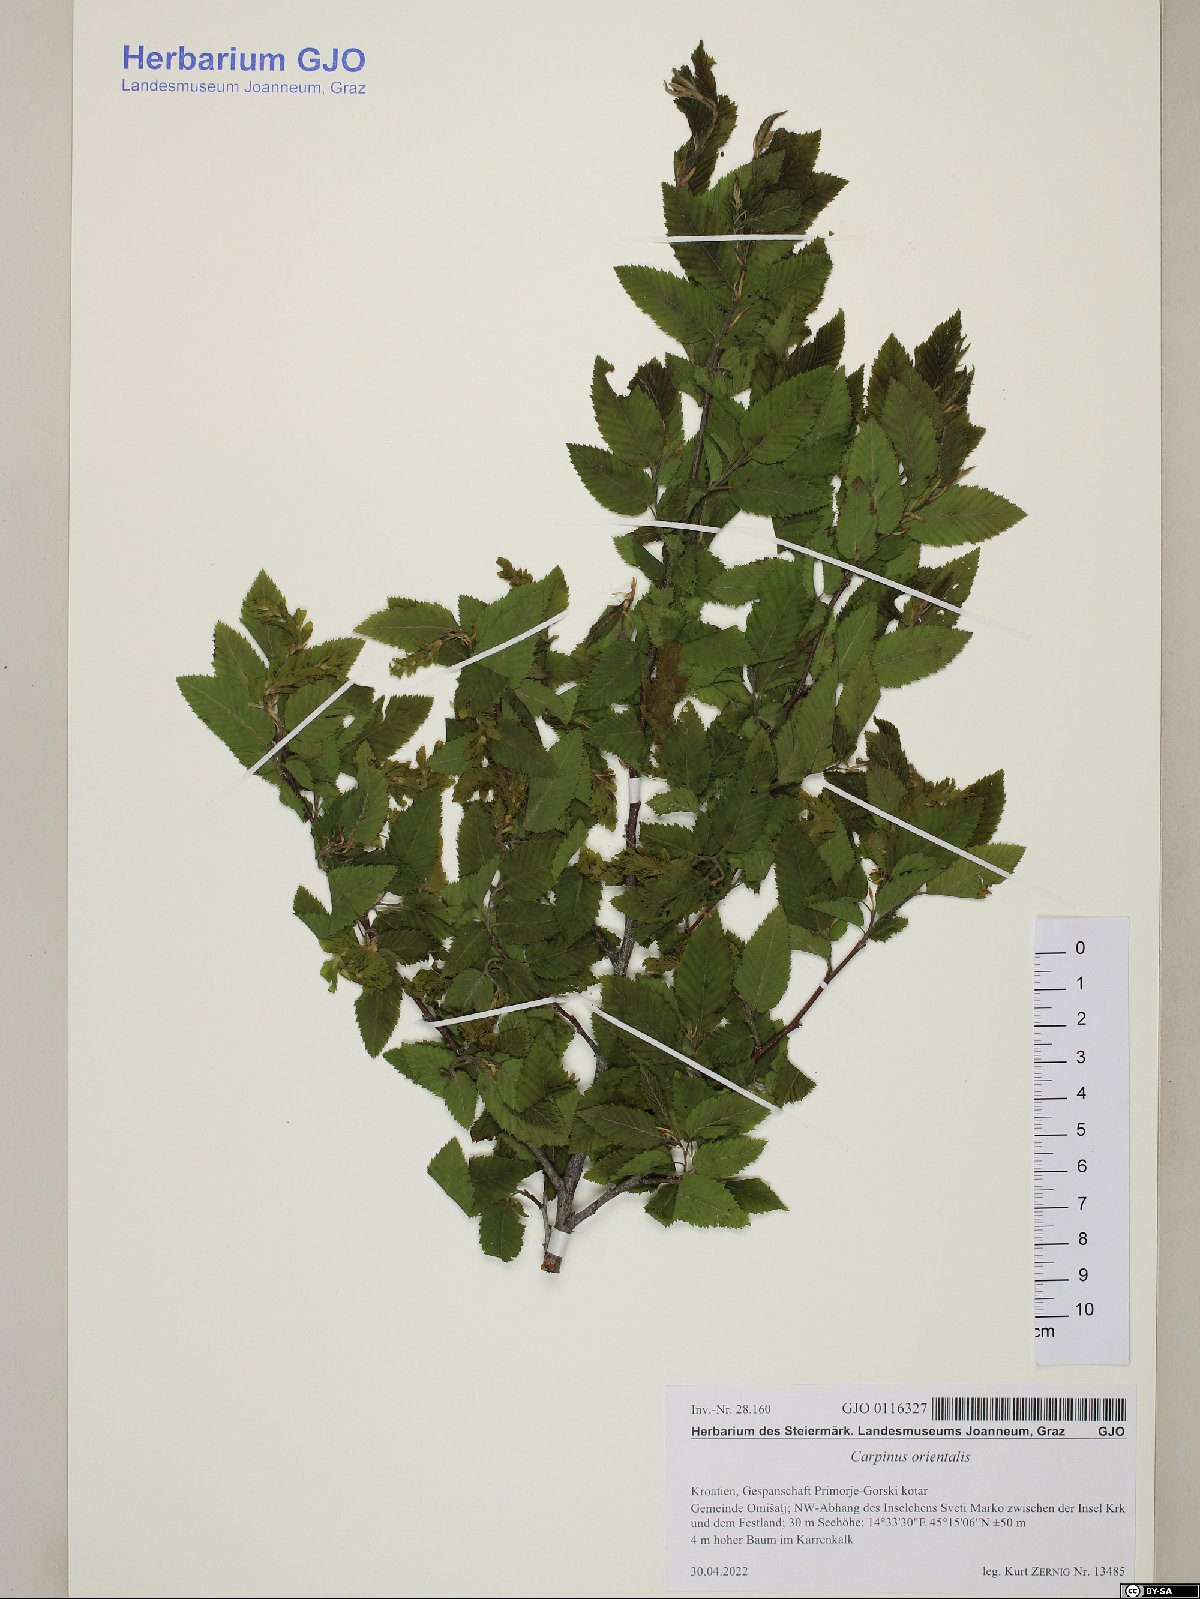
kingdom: Plantae
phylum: Tracheophyta
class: Magnoliopsida
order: Fagales
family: Betulaceae
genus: Carpinus
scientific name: Carpinus orientalis
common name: Eastern hornbeam
